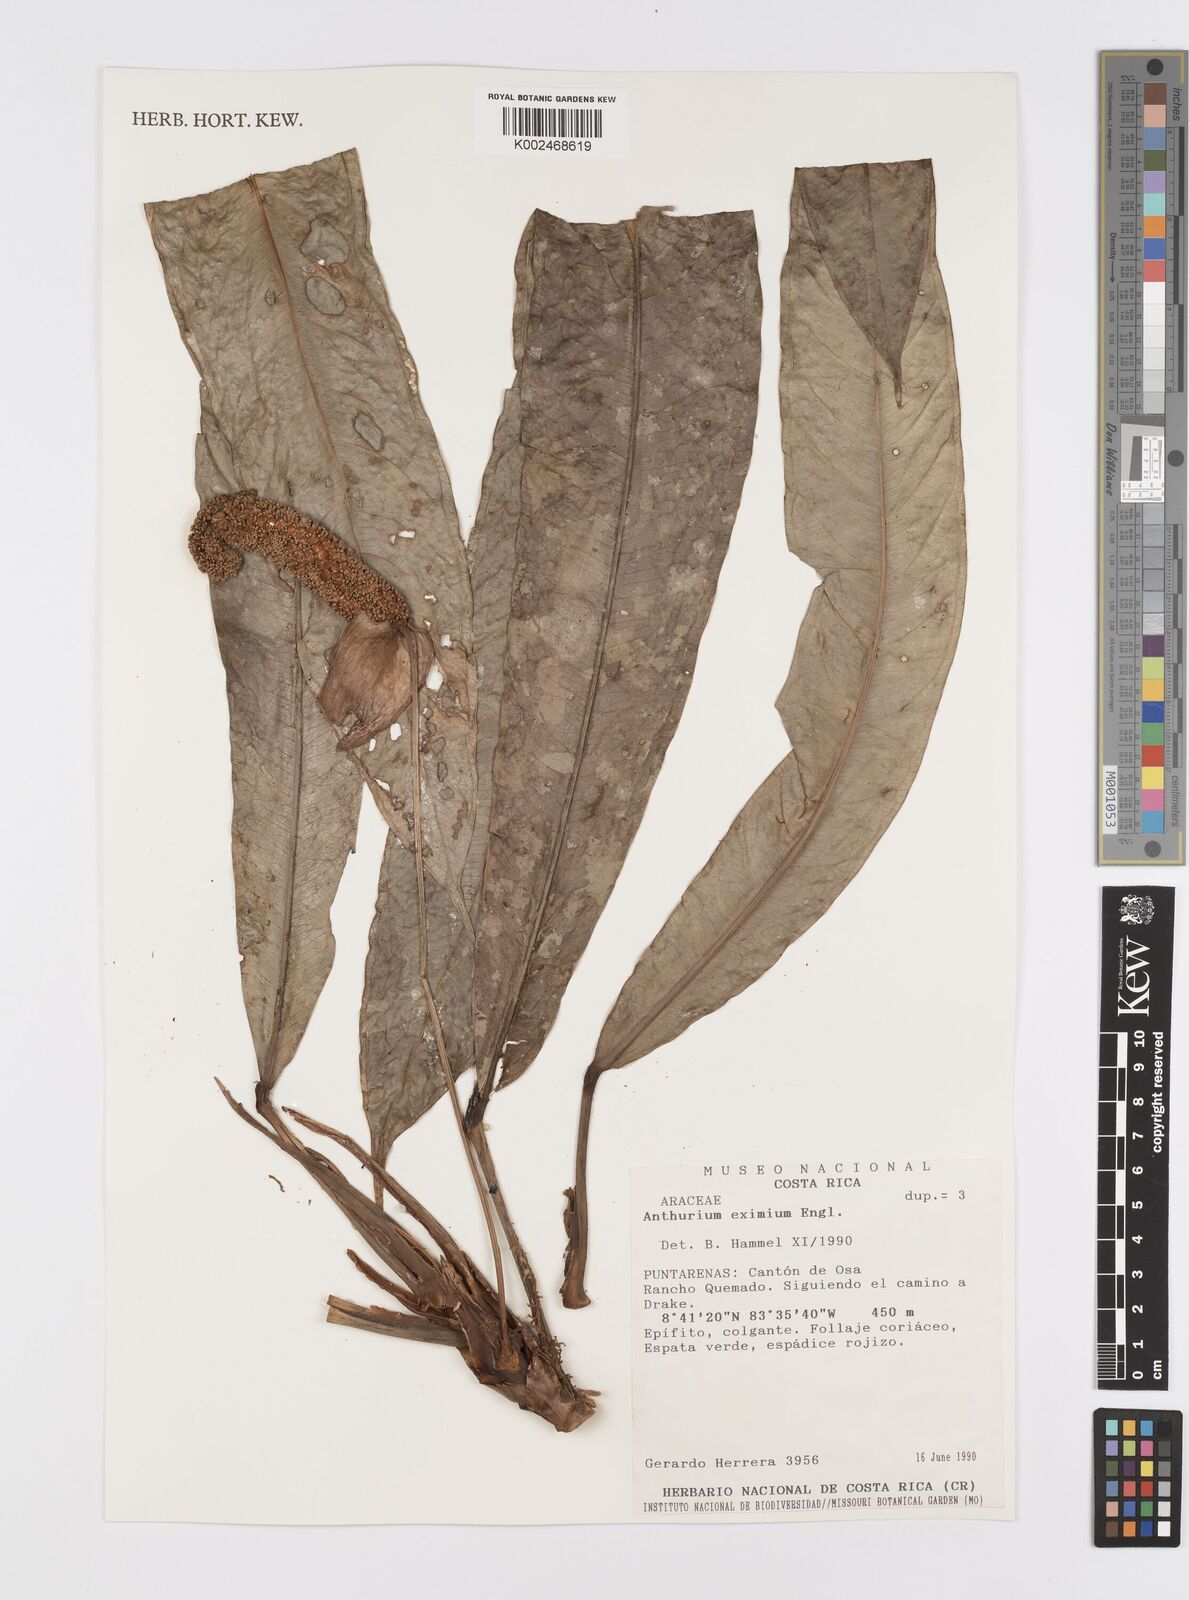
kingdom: Plantae
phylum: Tracheophyta
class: Liliopsida
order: Alismatales
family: Araceae
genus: Anthurium
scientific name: Anthurium eximium
